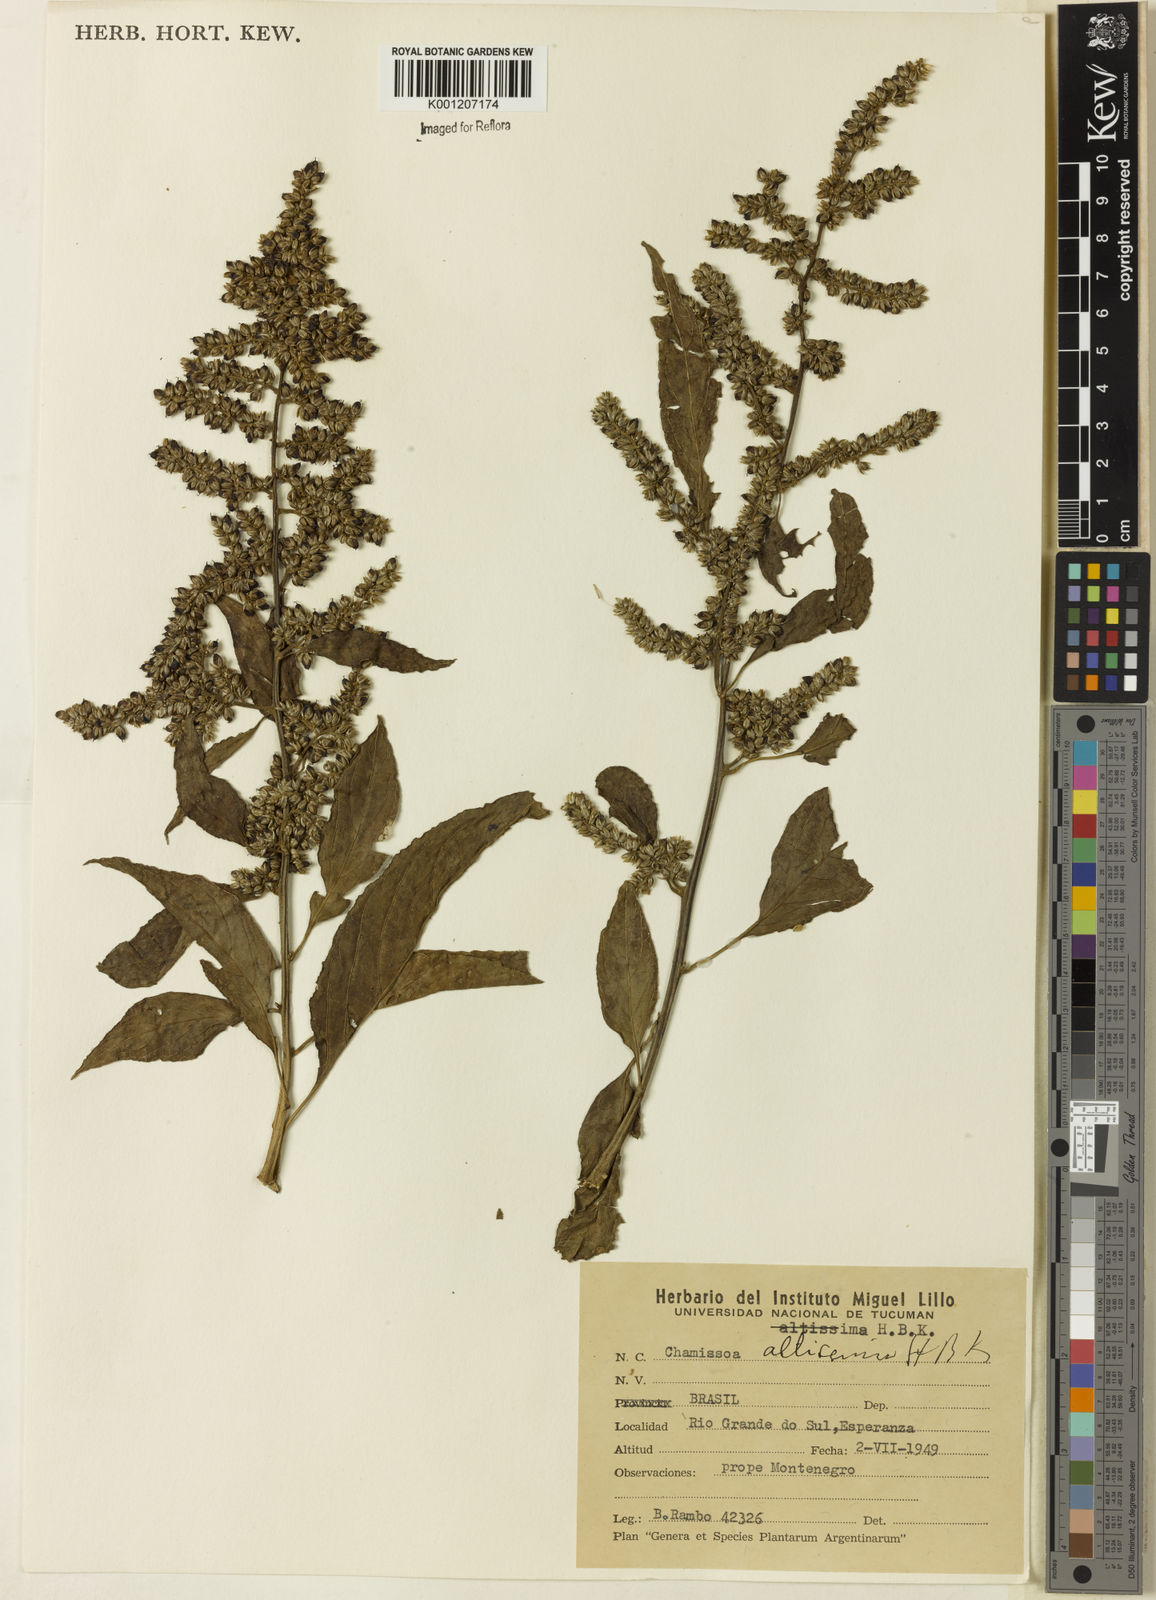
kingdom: Plantae
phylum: Tracheophyta
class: Magnoliopsida
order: Caryophyllales
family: Amaranthaceae
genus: Chamissoa
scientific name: Chamissoa altissima
